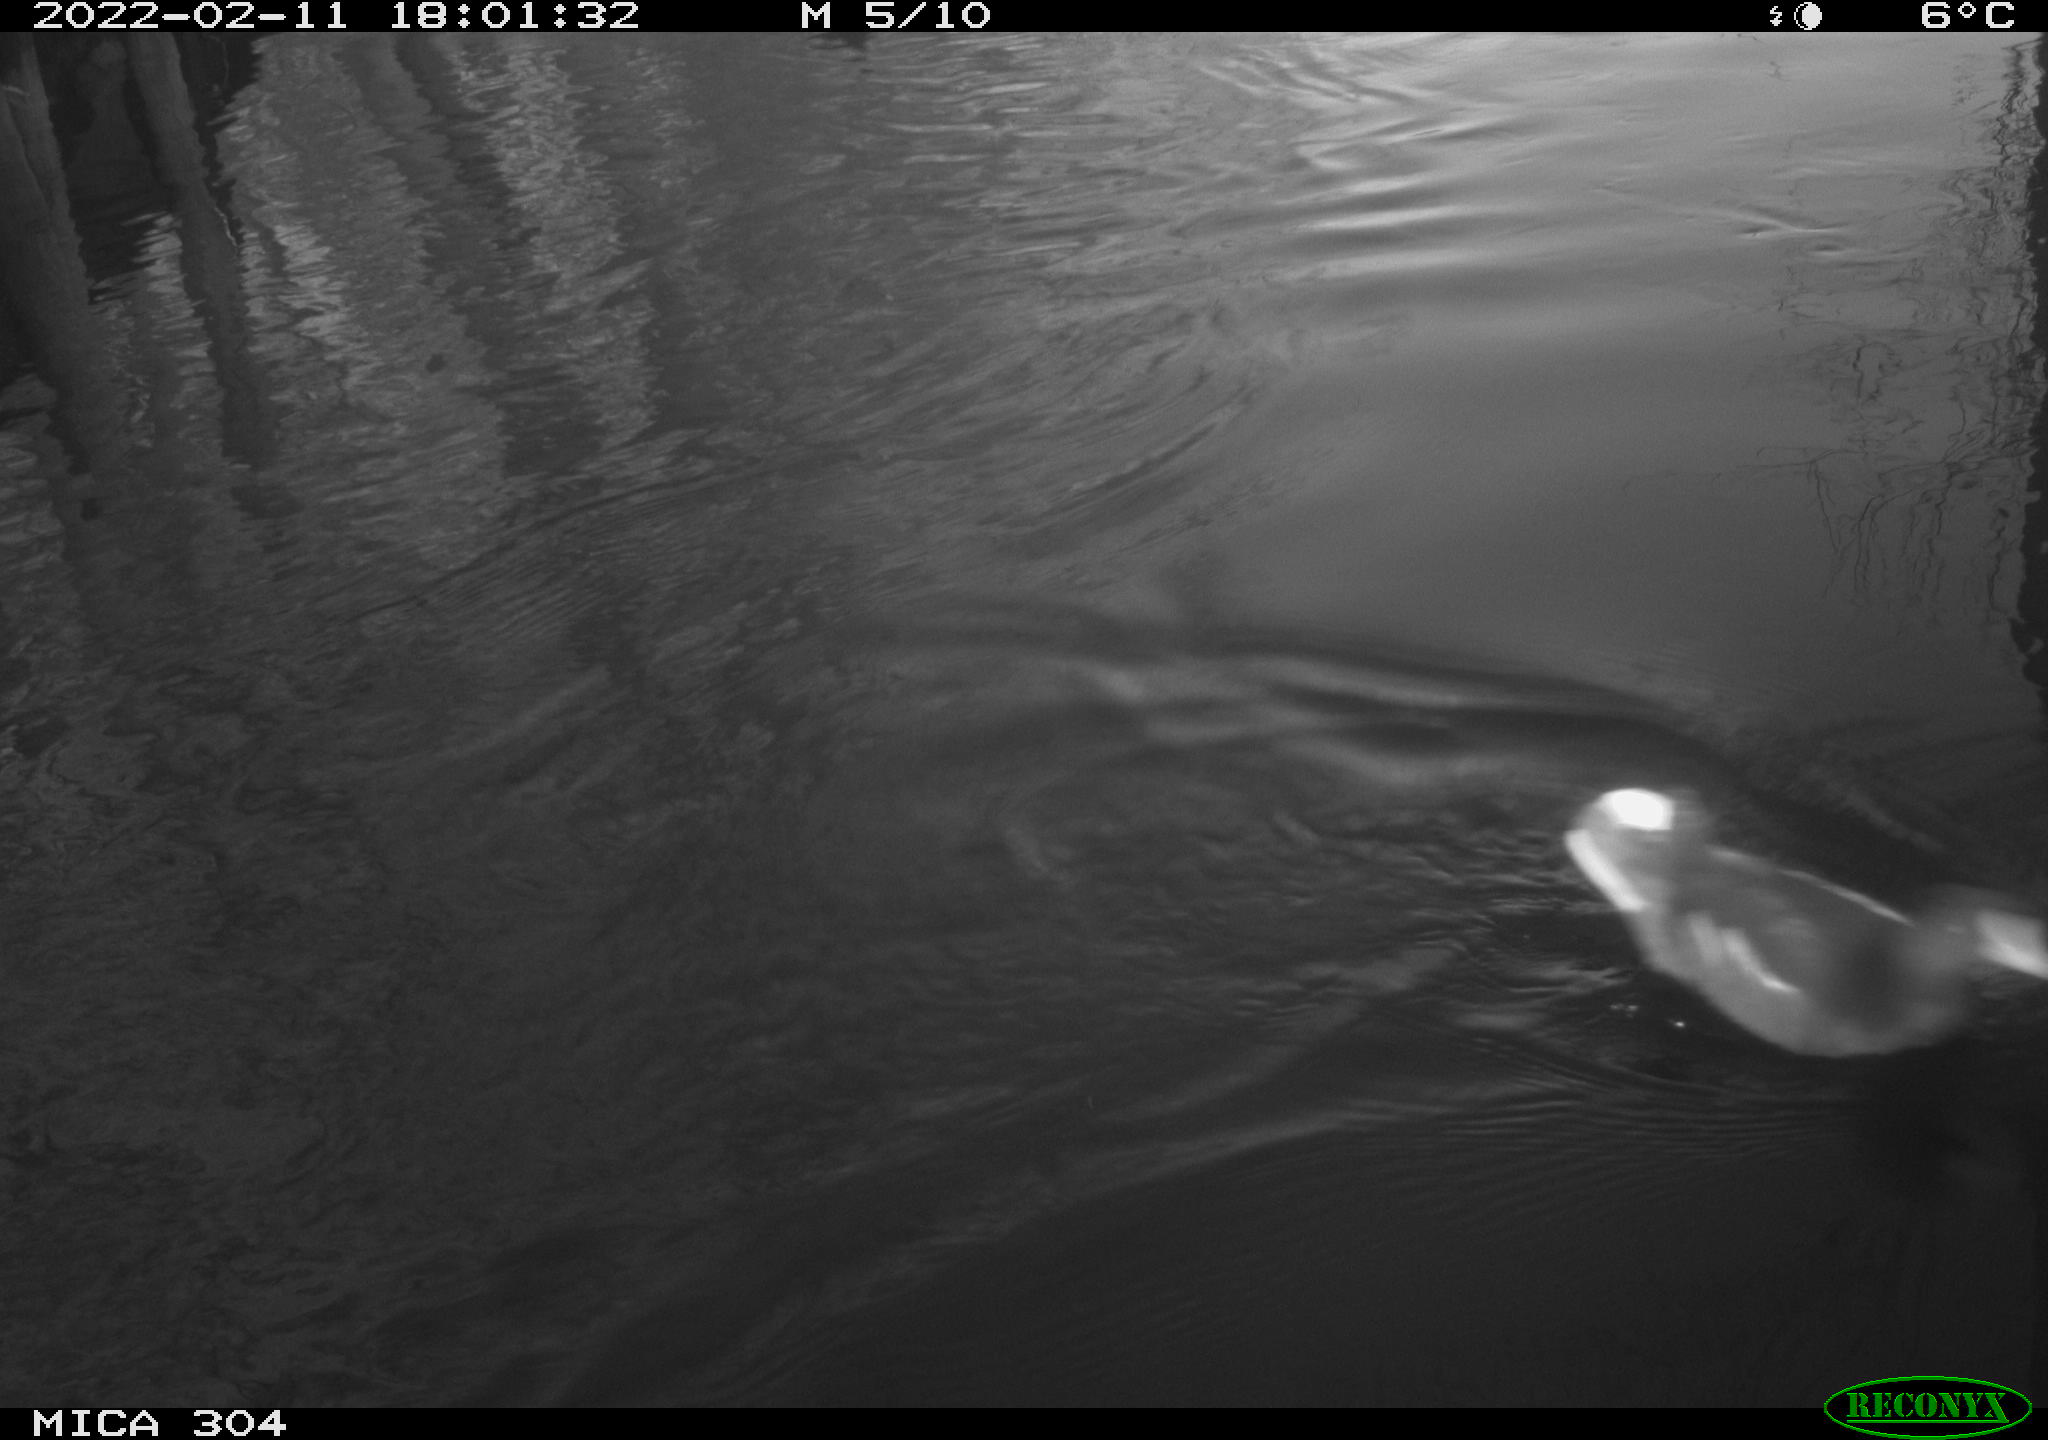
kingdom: Animalia
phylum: Chordata
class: Aves
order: Gruiformes
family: Rallidae
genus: Gallinula
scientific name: Gallinula chloropus
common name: Common moorhen
